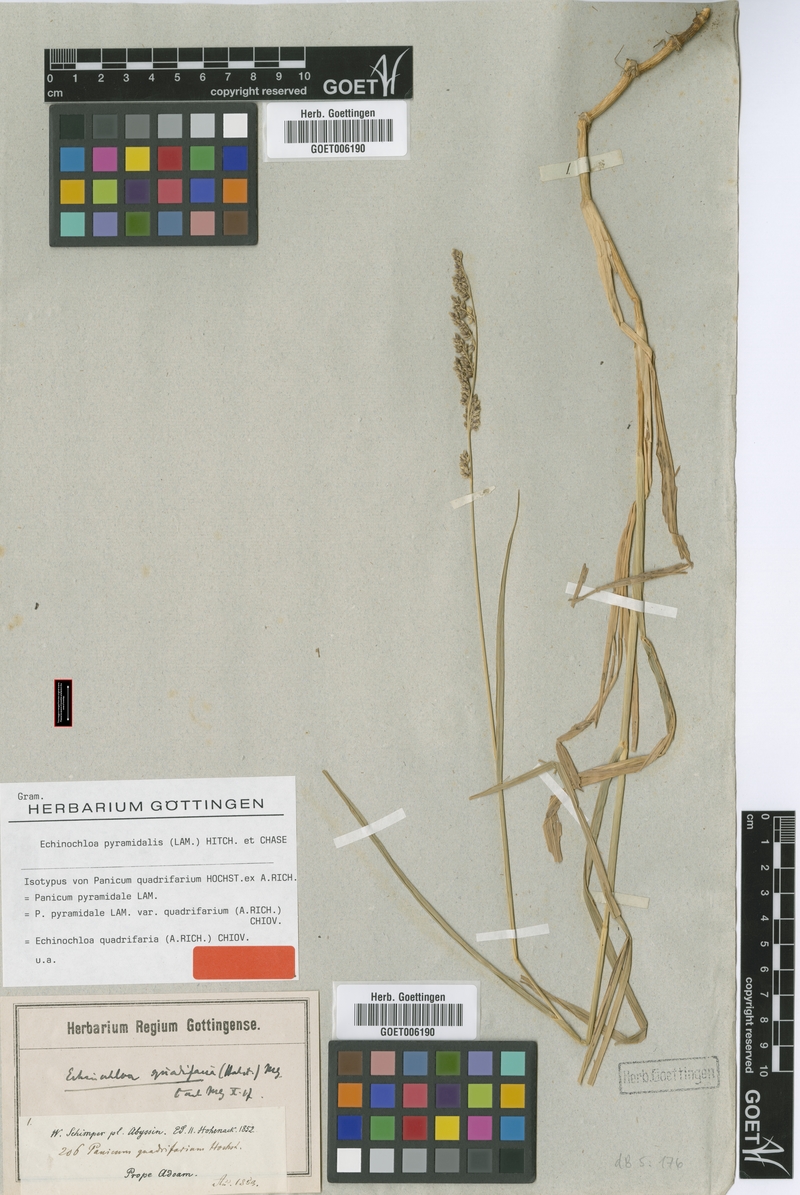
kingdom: Plantae
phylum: Tracheophyta
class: Liliopsida
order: Poales
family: Poaceae
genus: Echinochloa
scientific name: Echinochloa pyramidalis
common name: Antelope grass
